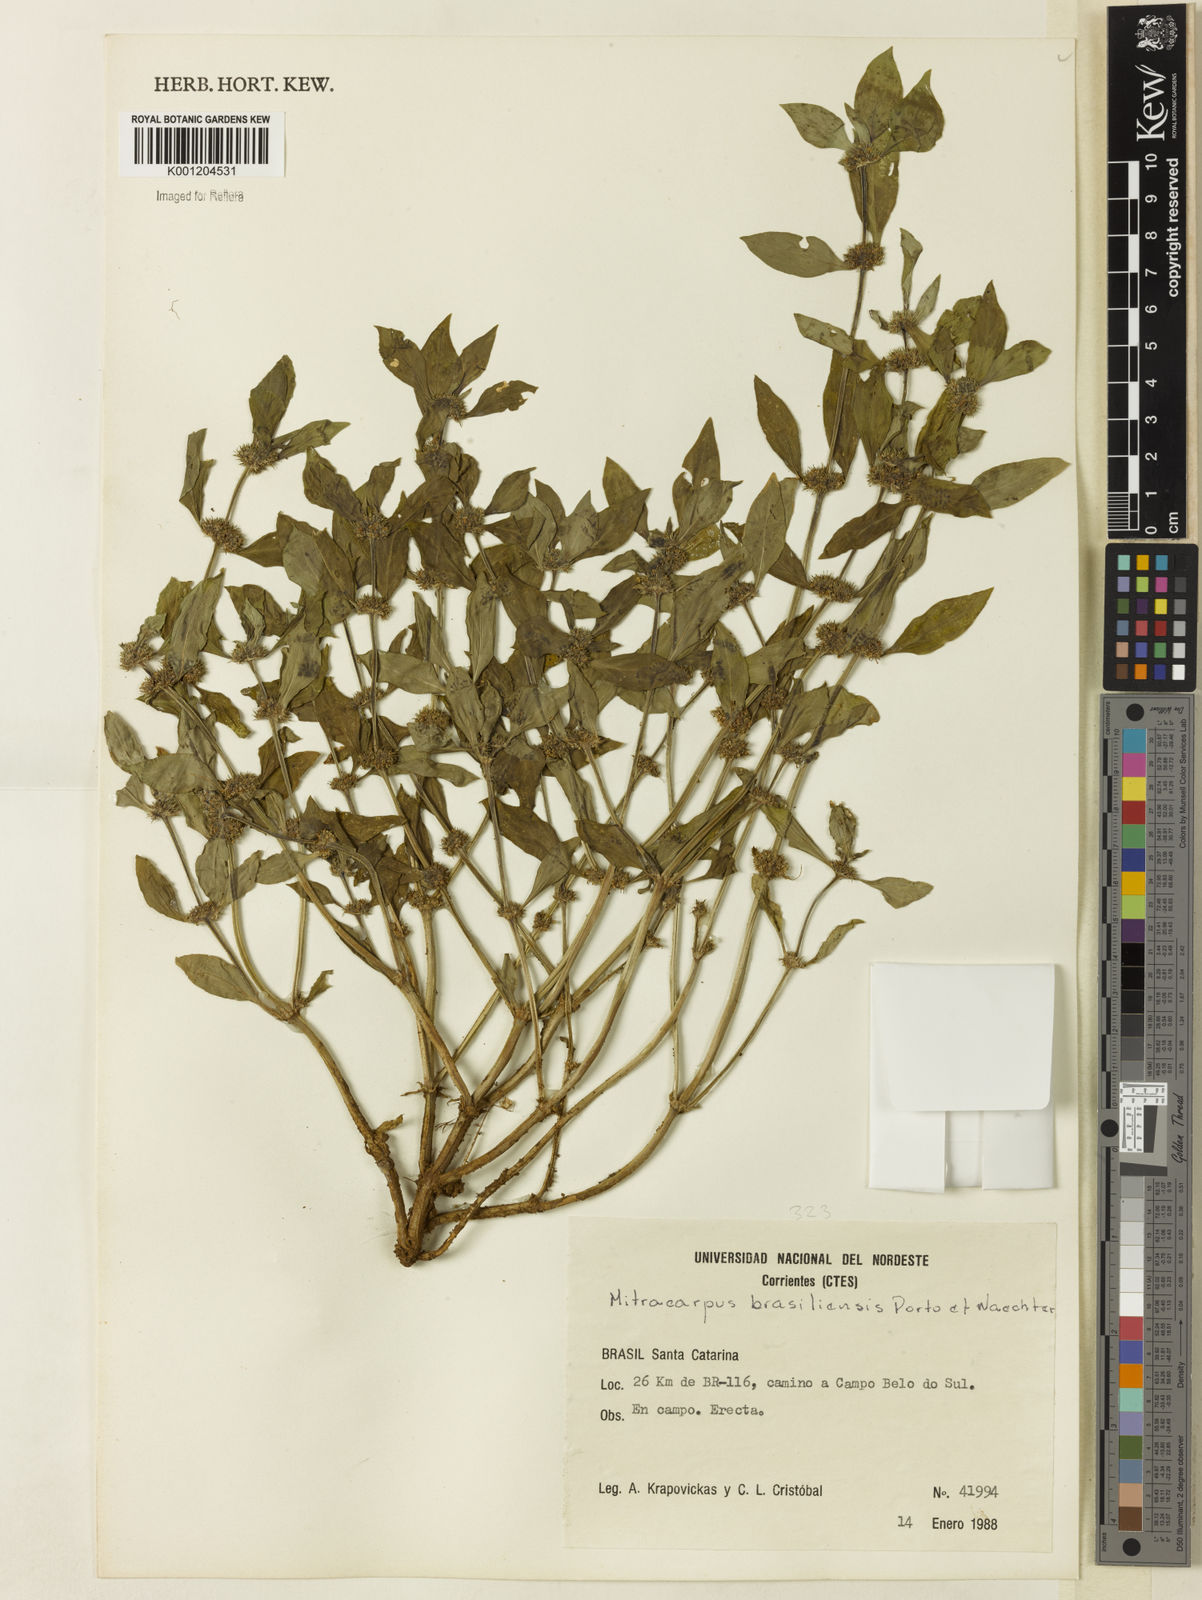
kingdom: Plantae
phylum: Tracheophyta
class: Magnoliopsida
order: Gentianales
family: Rubiaceae
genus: Mitracarpus
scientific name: Mitracarpus brasiliensis
